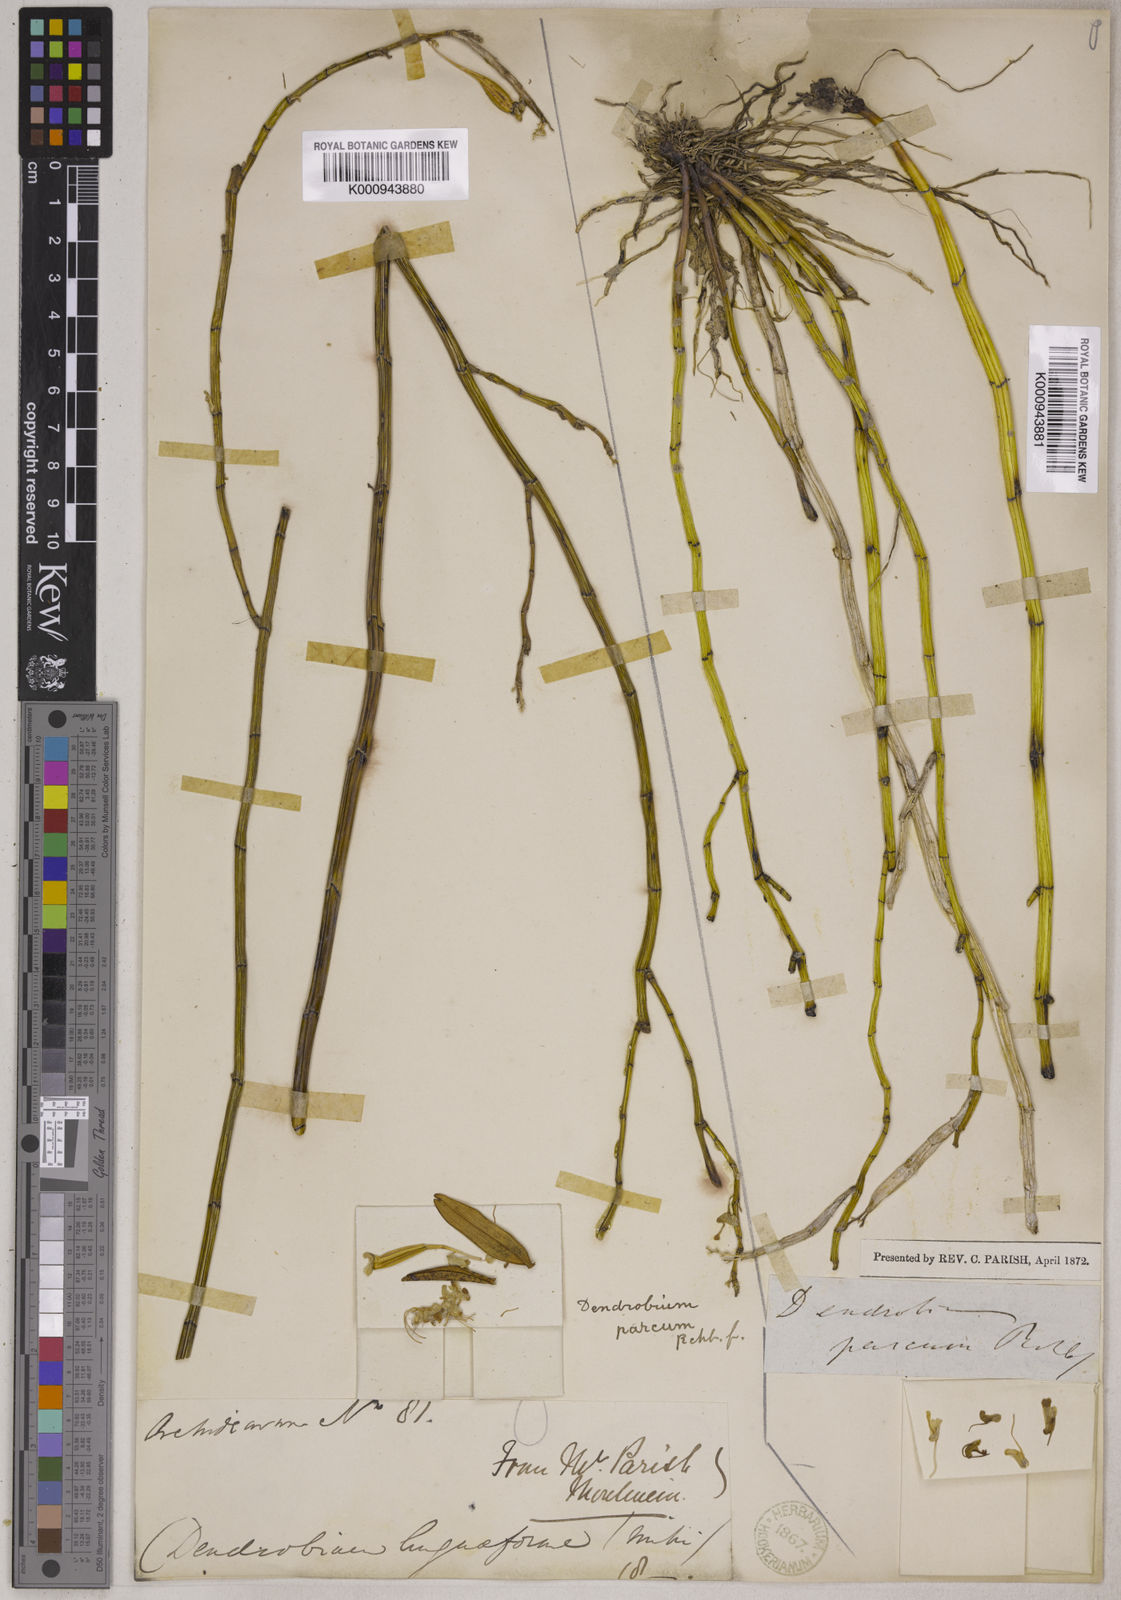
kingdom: Plantae
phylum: Tracheophyta
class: Liliopsida
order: Asparagales
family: Orchidaceae
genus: Dendrobium
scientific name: Dendrobium parcum
